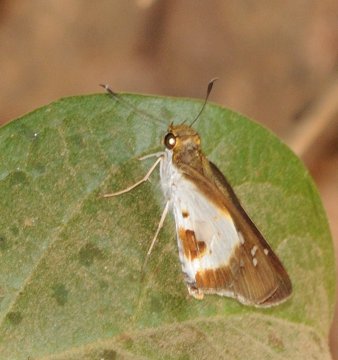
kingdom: Animalia
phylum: Arthropoda
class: Insecta
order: Lepidoptera
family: Hesperiidae
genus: Andronymus
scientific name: Andronymus caesar
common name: White Dart
